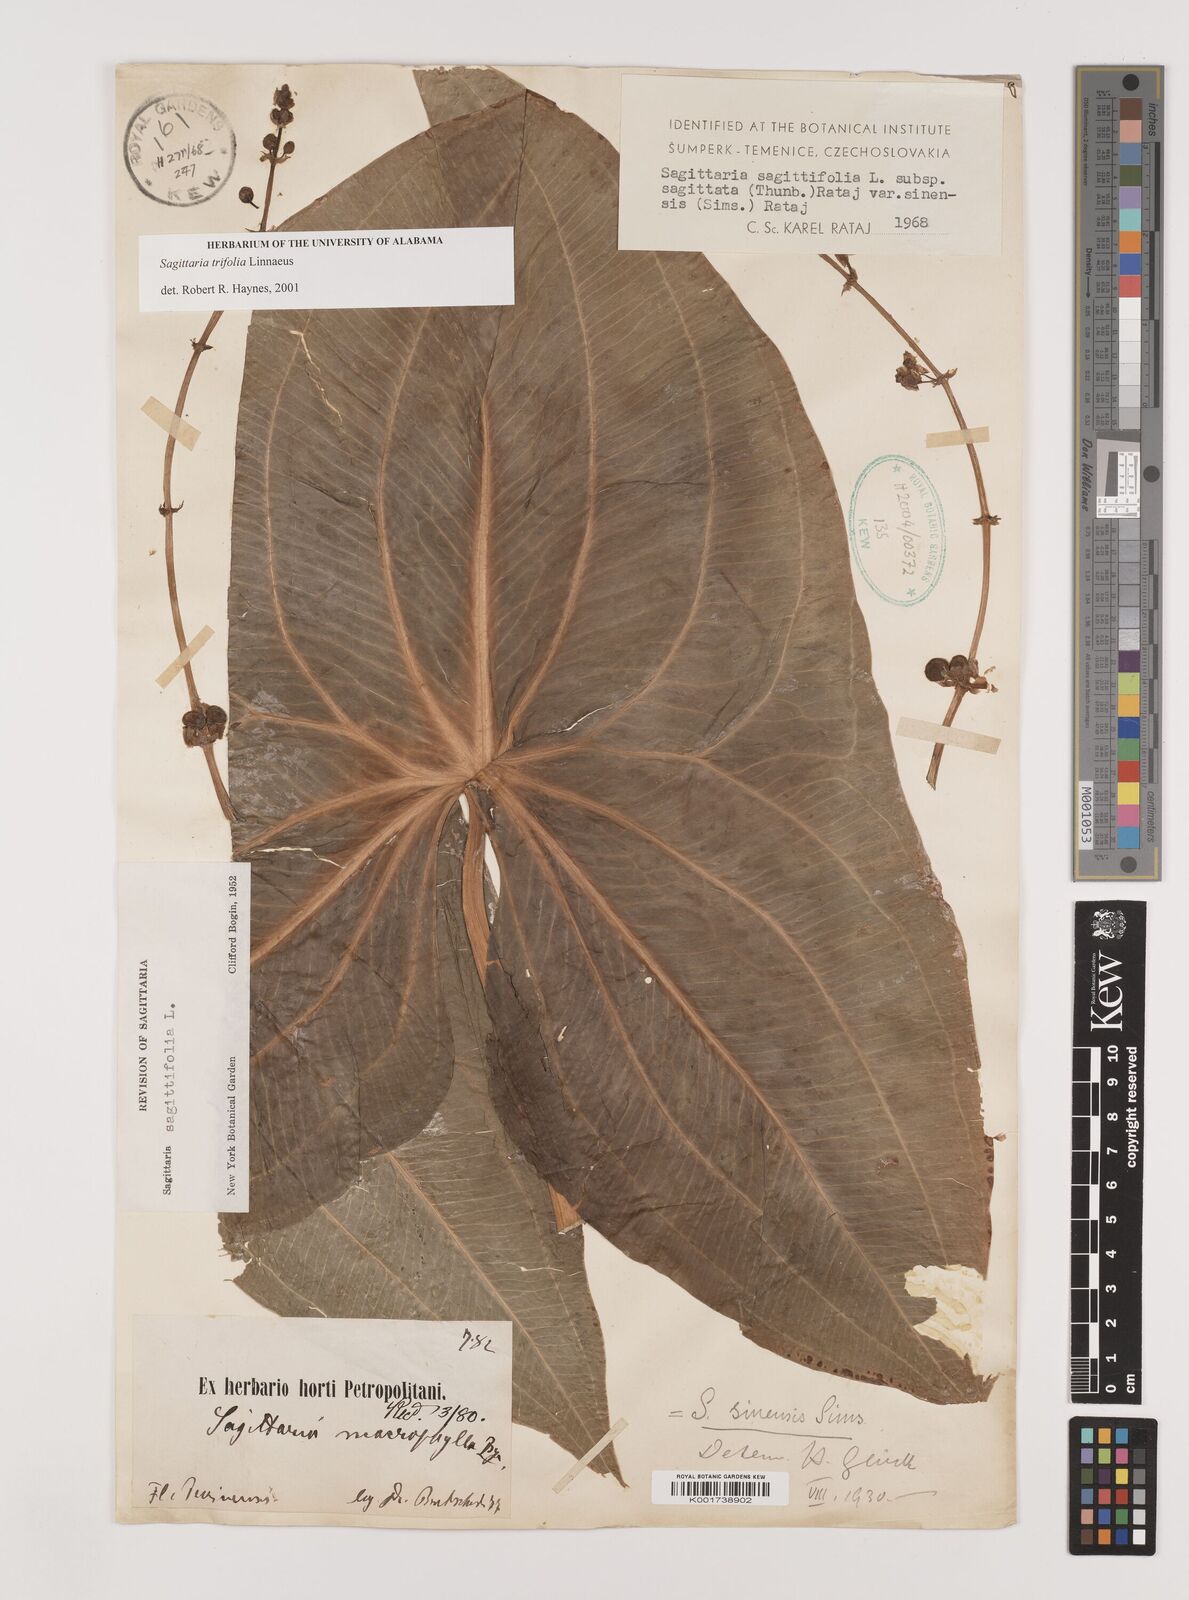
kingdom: Plantae
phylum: Tracheophyta
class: Liliopsida
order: Alismatales
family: Alismataceae
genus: Sagittaria
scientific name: Sagittaria trifolia
